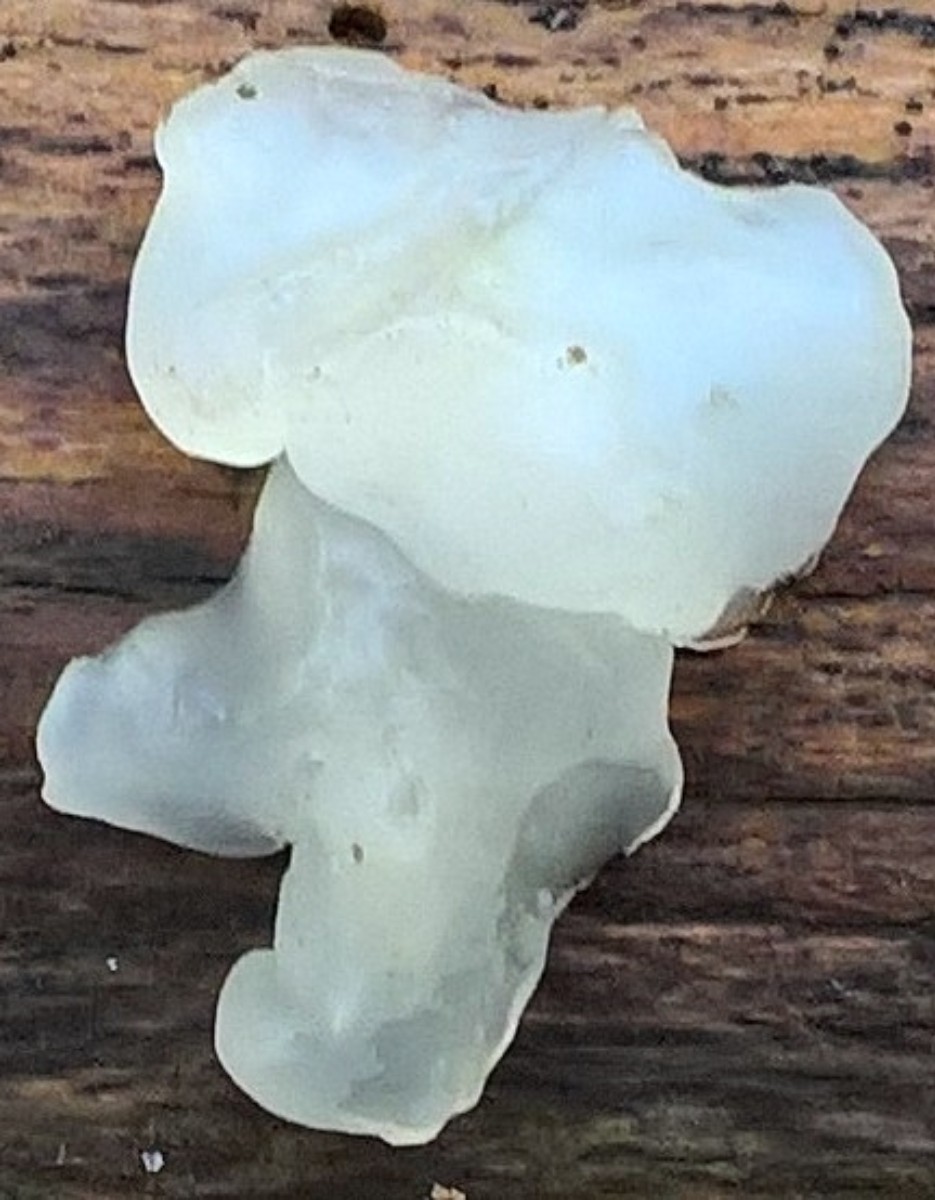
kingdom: Fungi
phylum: Basidiomycota
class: Tremellomycetes
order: Tremellales
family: Exidiaceae
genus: Exidia
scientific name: Exidia
